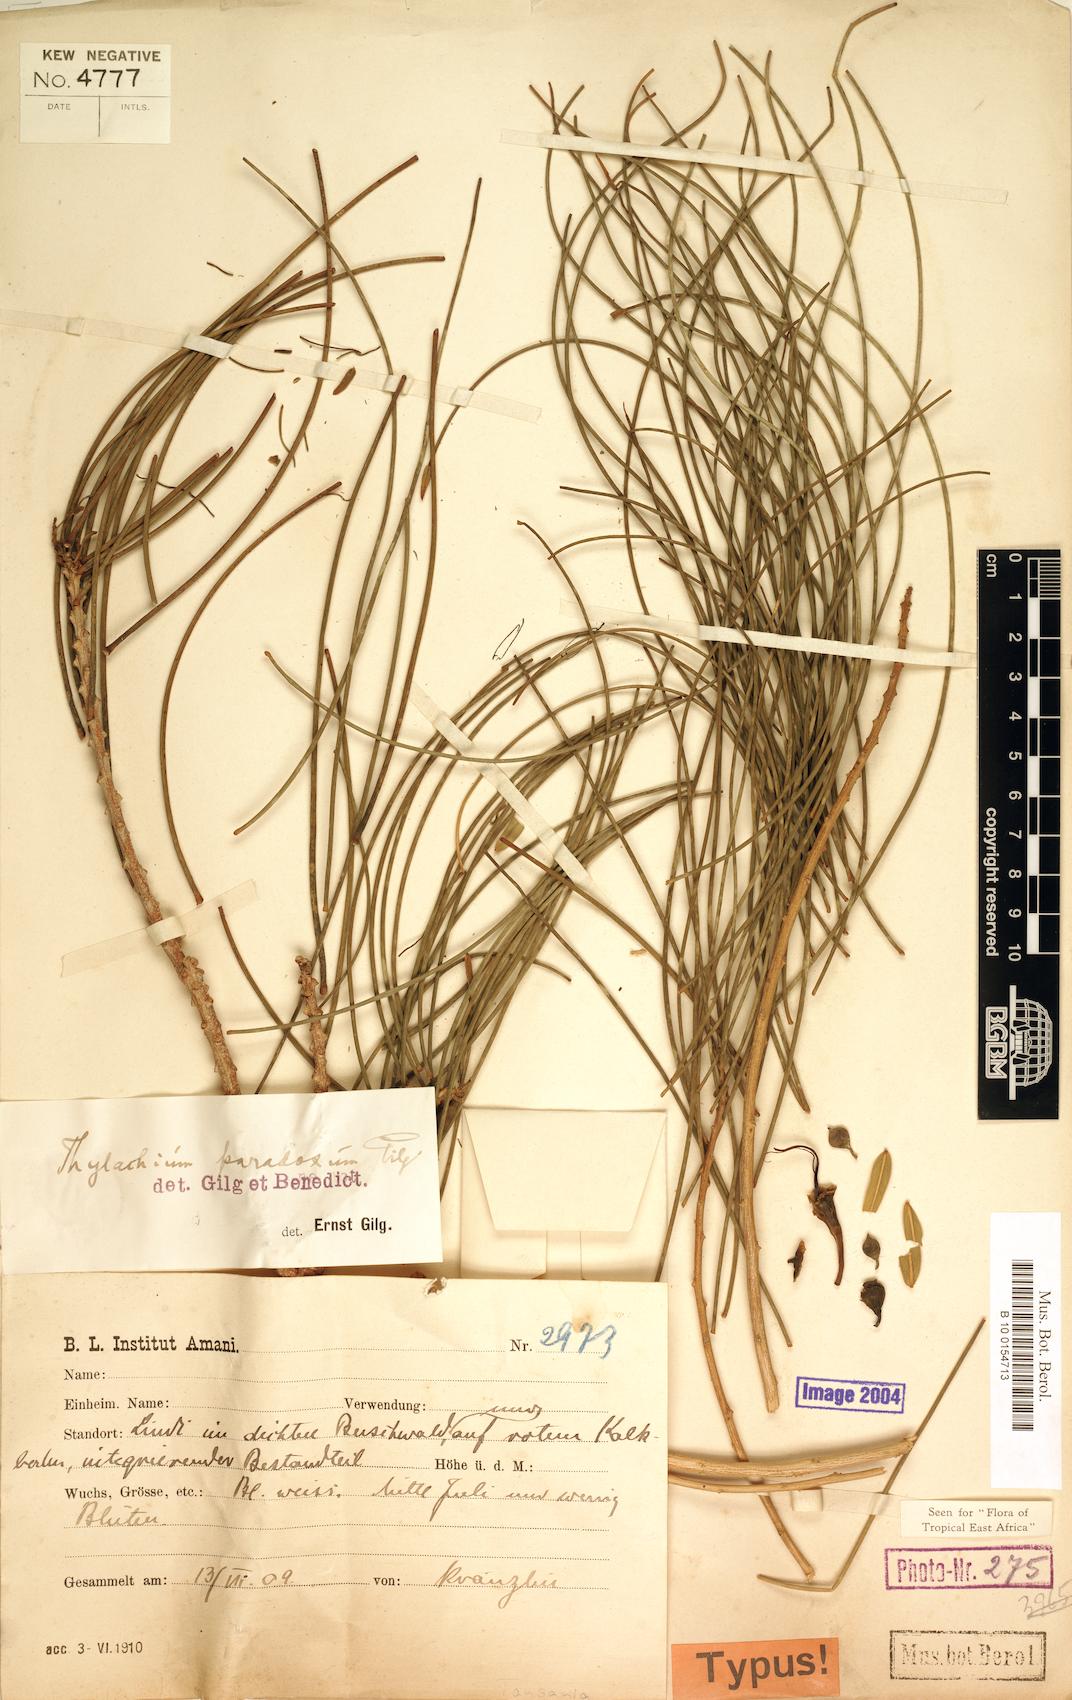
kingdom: Plantae
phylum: Tracheophyta
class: Magnoliopsida
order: Brassicales
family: Capparaceae
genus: Thilachium
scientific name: Thilachium paradoxum
